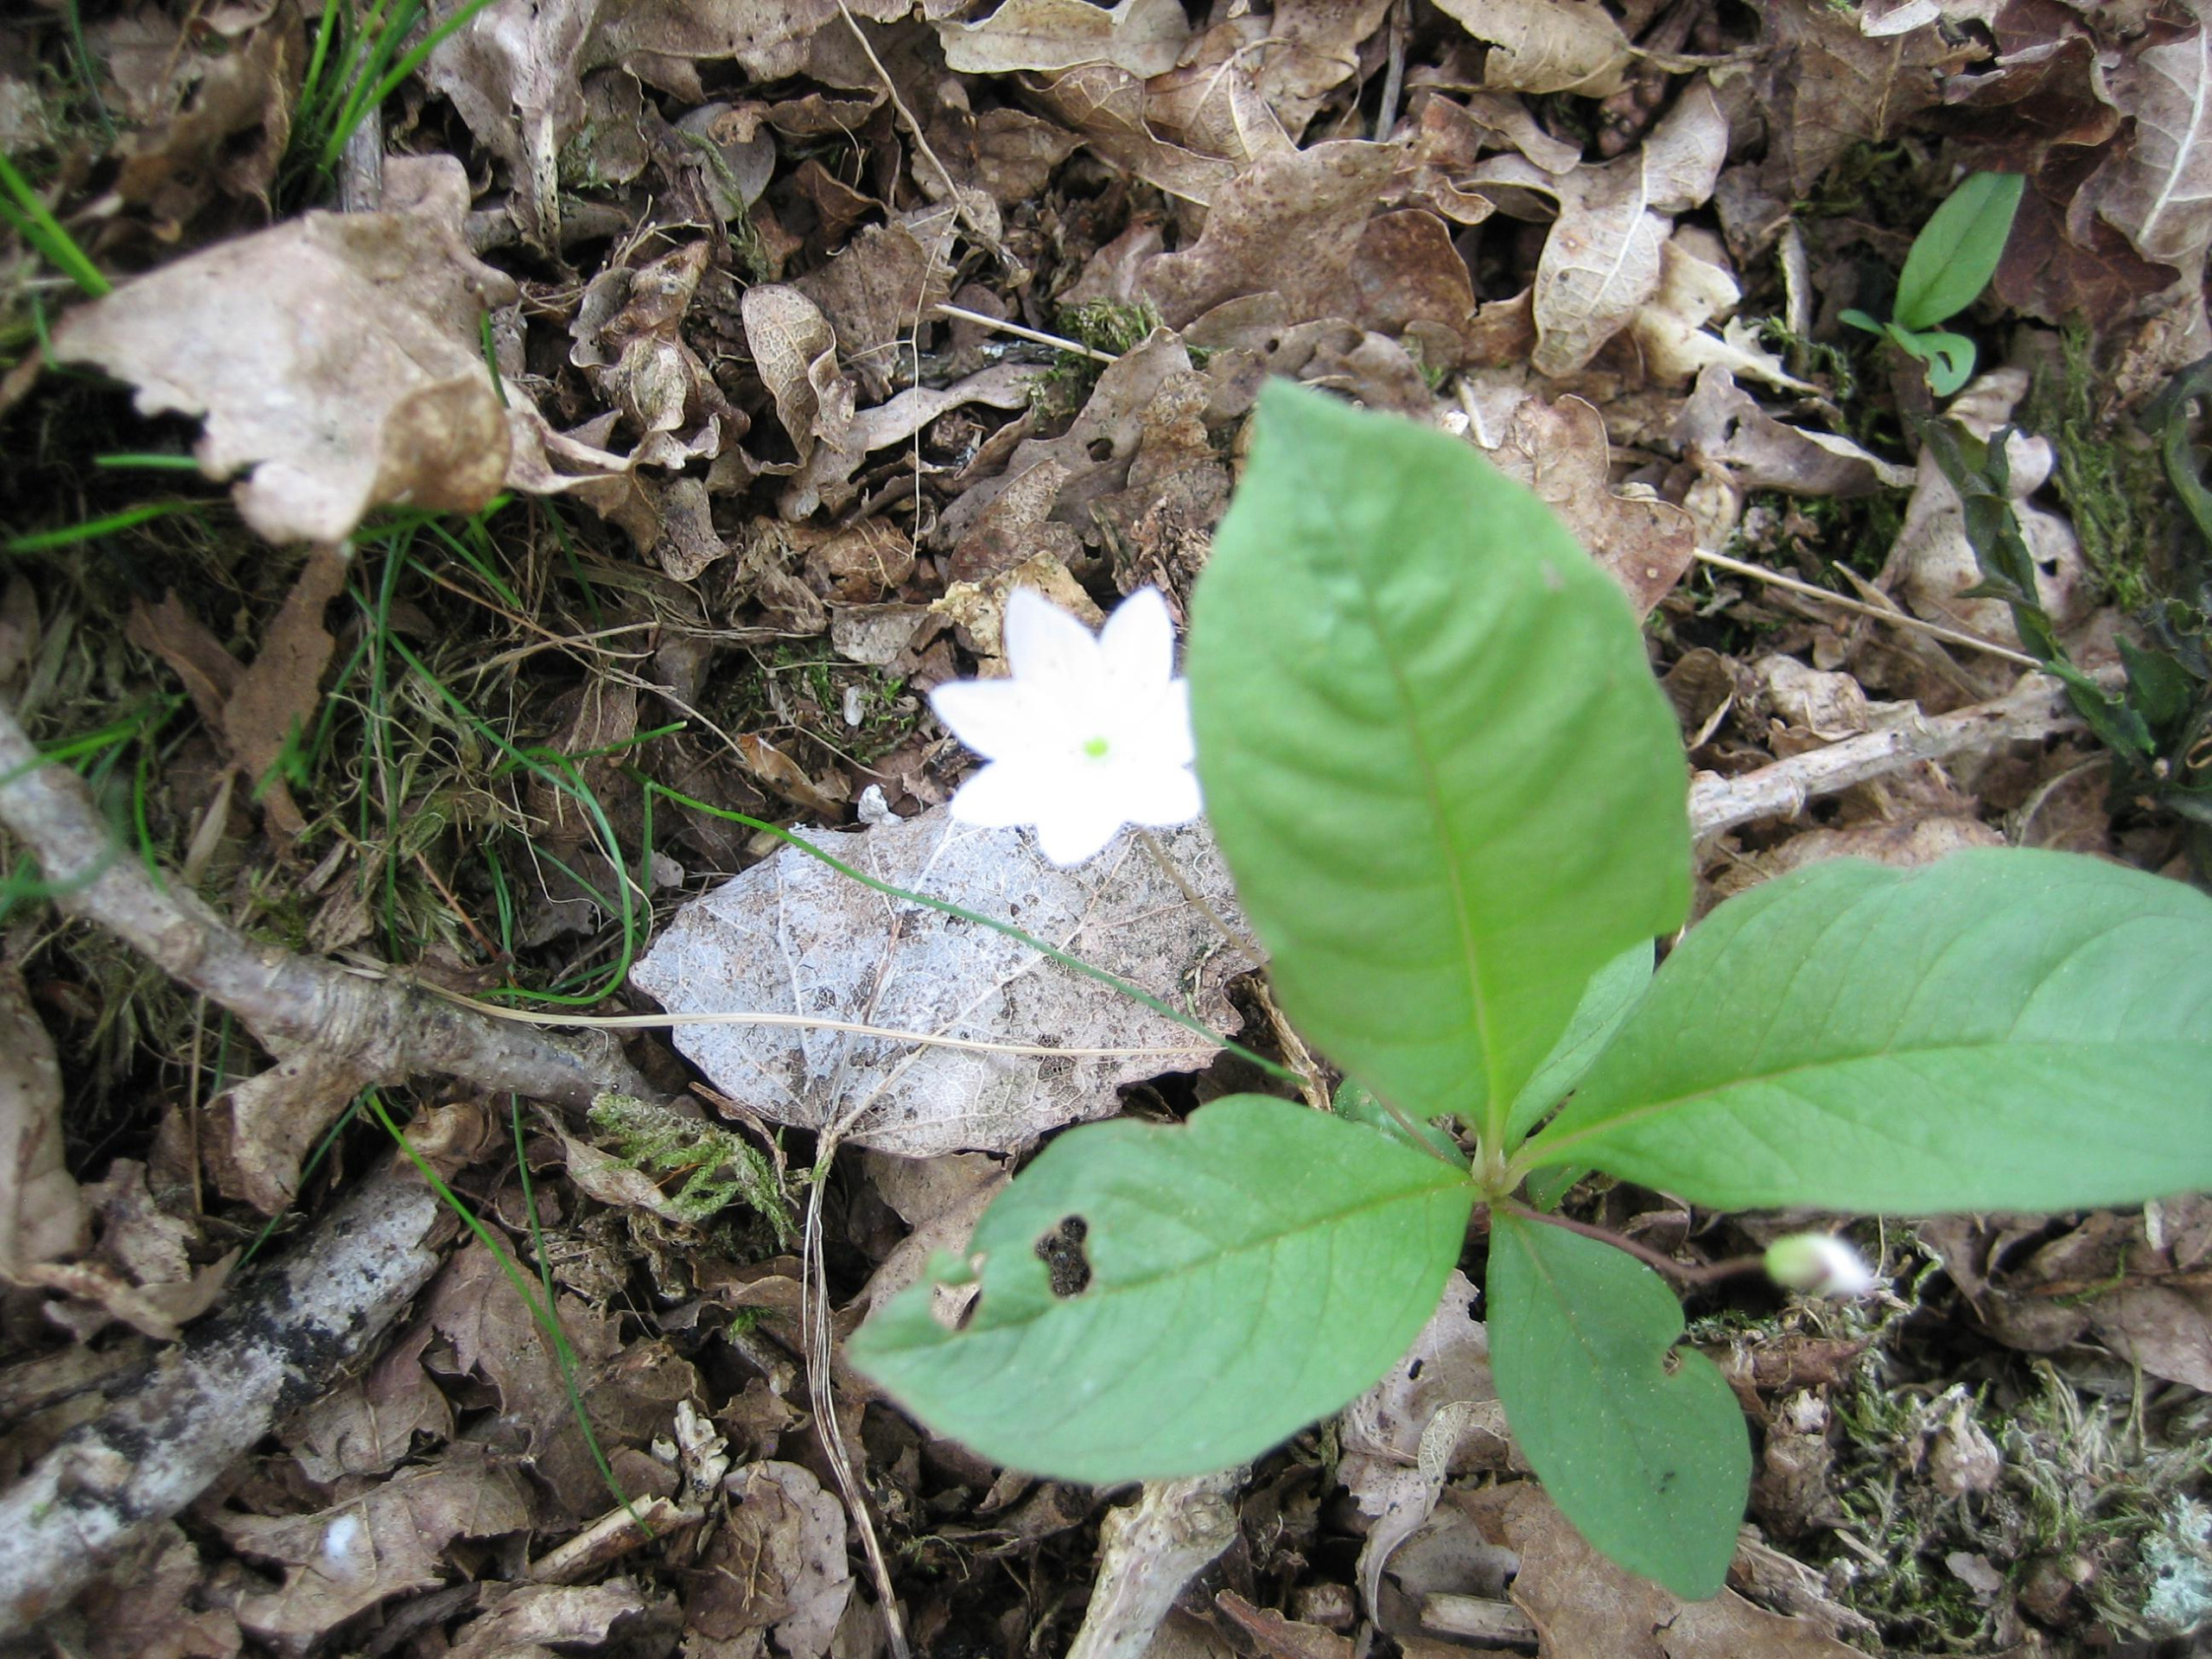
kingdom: Plantae
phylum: Tracheophyta
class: Magnoliopsida
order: Ericales
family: Primulaceae
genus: Lysimachia
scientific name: Lysimachia europaea
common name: Skovstjerne
